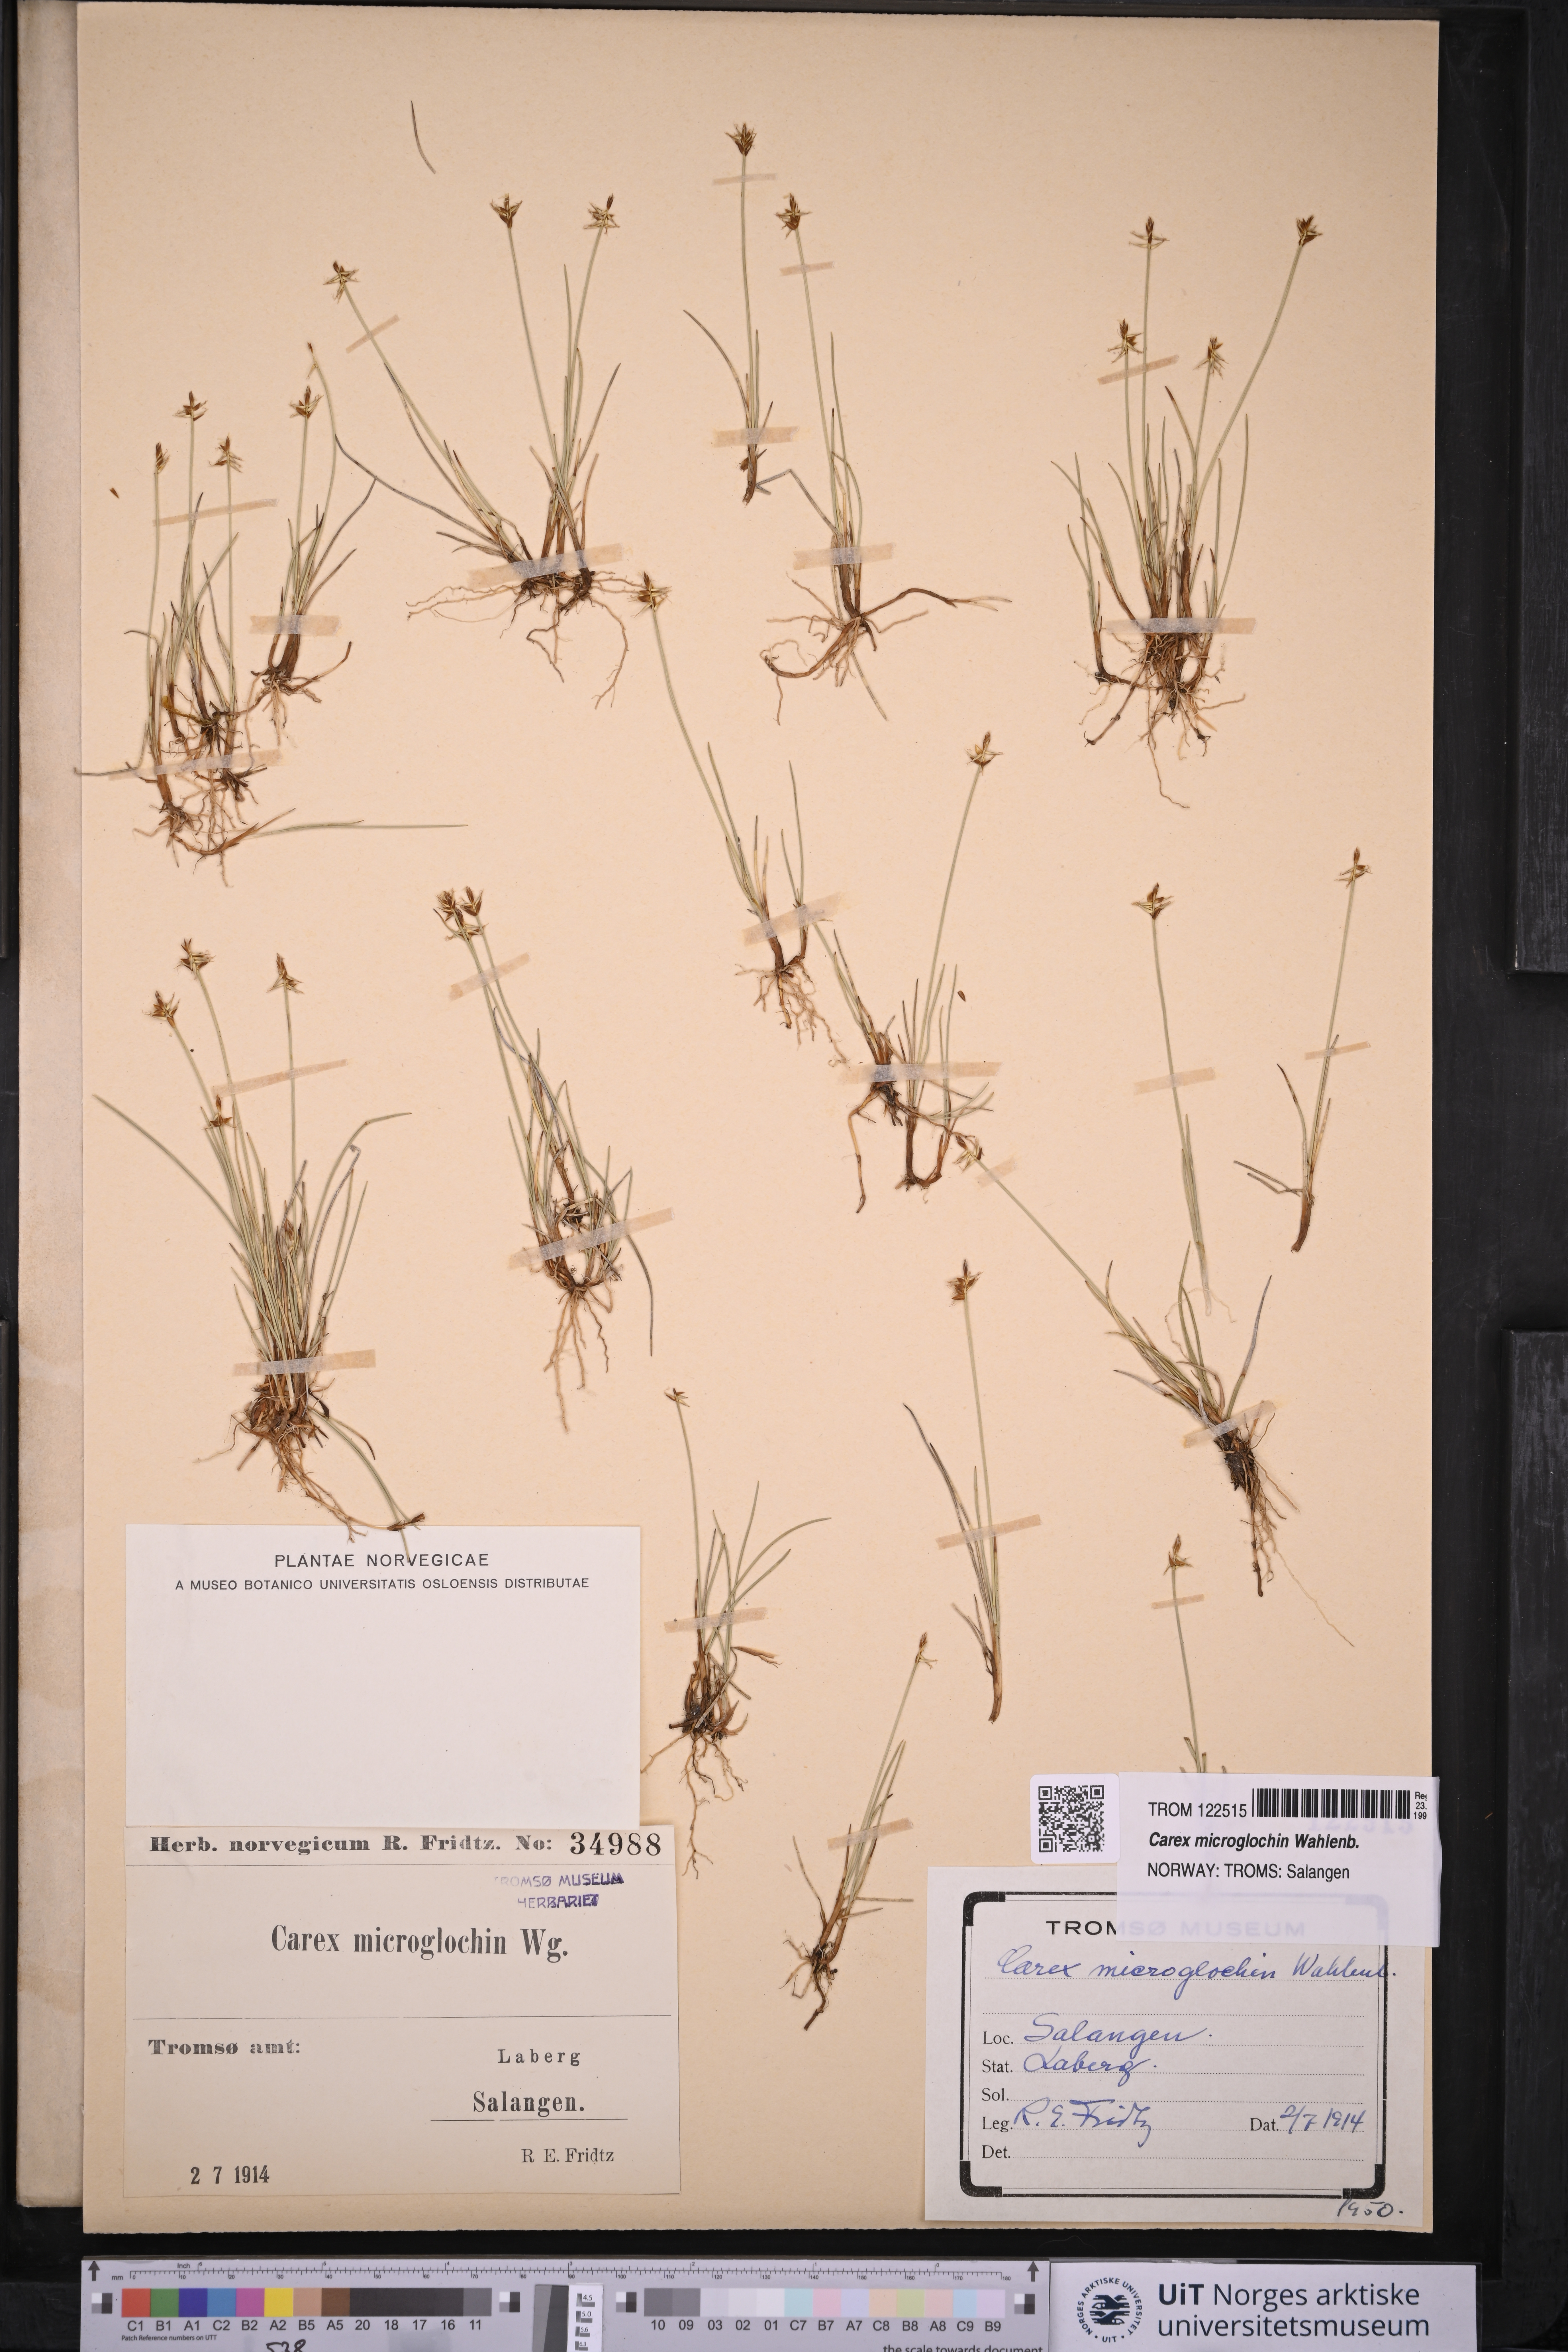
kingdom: Plantae
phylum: Tracheophyta
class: Liliopsida
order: Poales
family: Cyperaceae
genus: Carex
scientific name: Carex microglochin
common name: Bristle sedge
